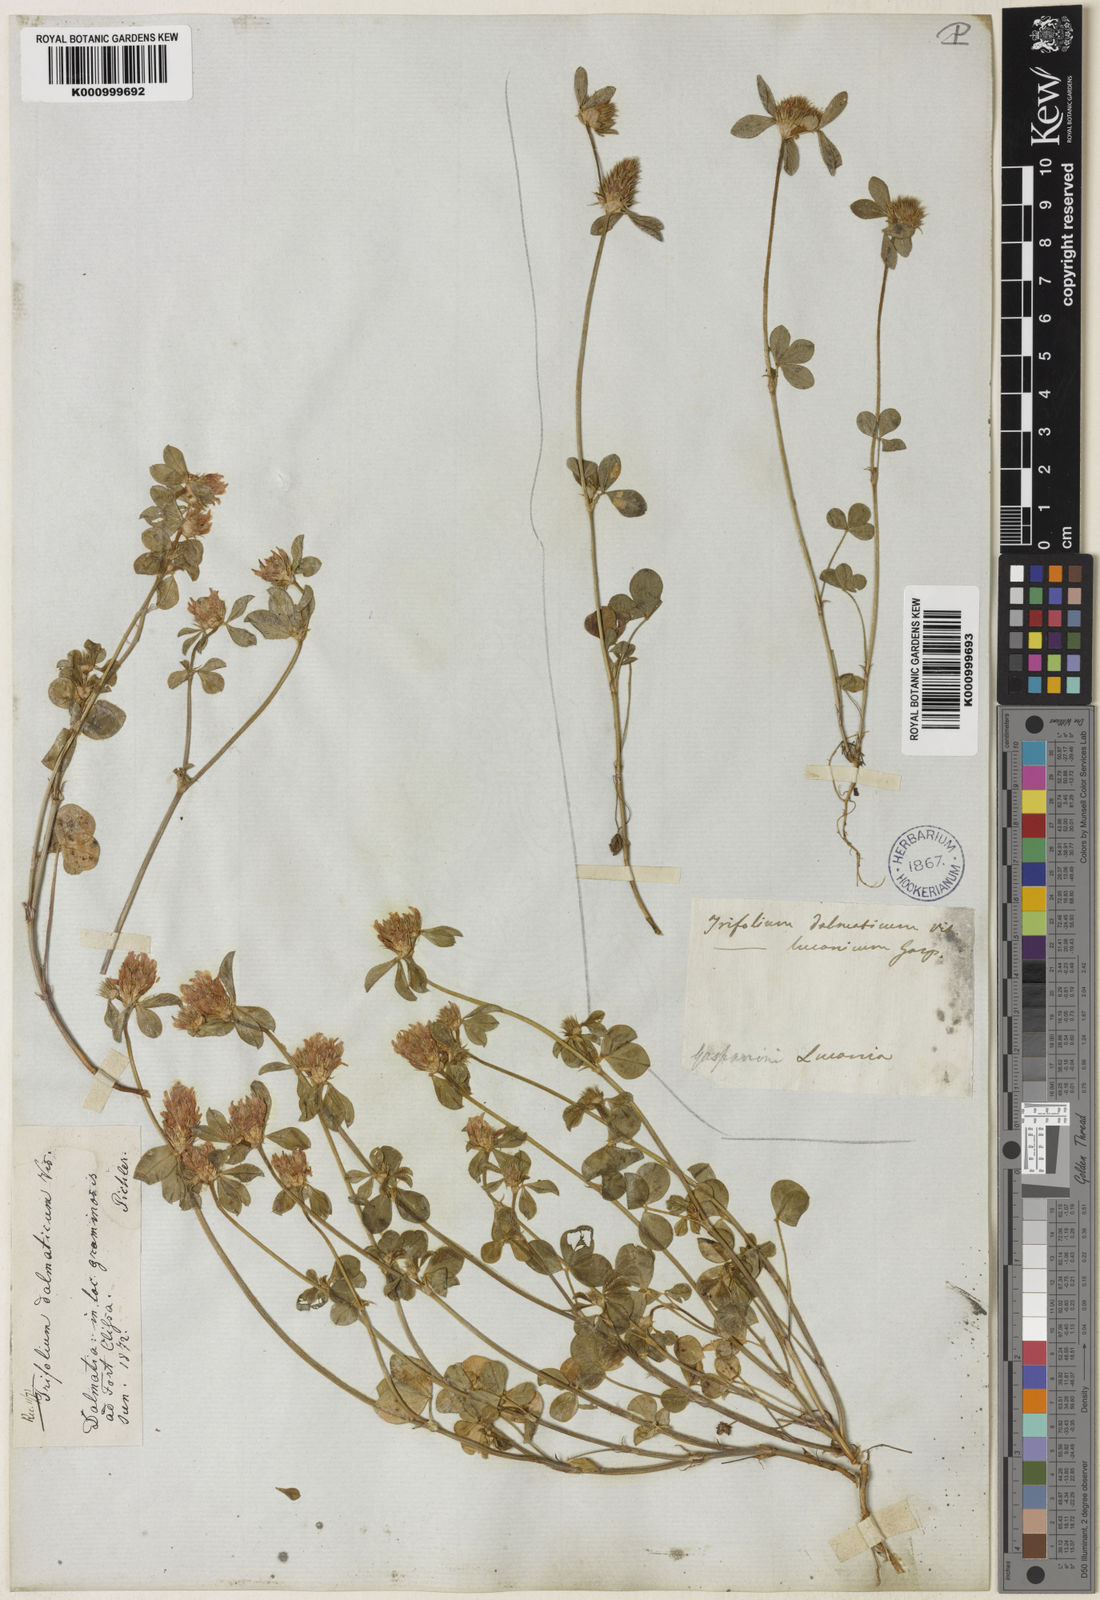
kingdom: Plantae
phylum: Tracheophyta
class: Magnoliopsida
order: Fabales
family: Fabaceae
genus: Trifolium
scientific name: Trifolium dalmaticum
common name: Dalmatian clover
